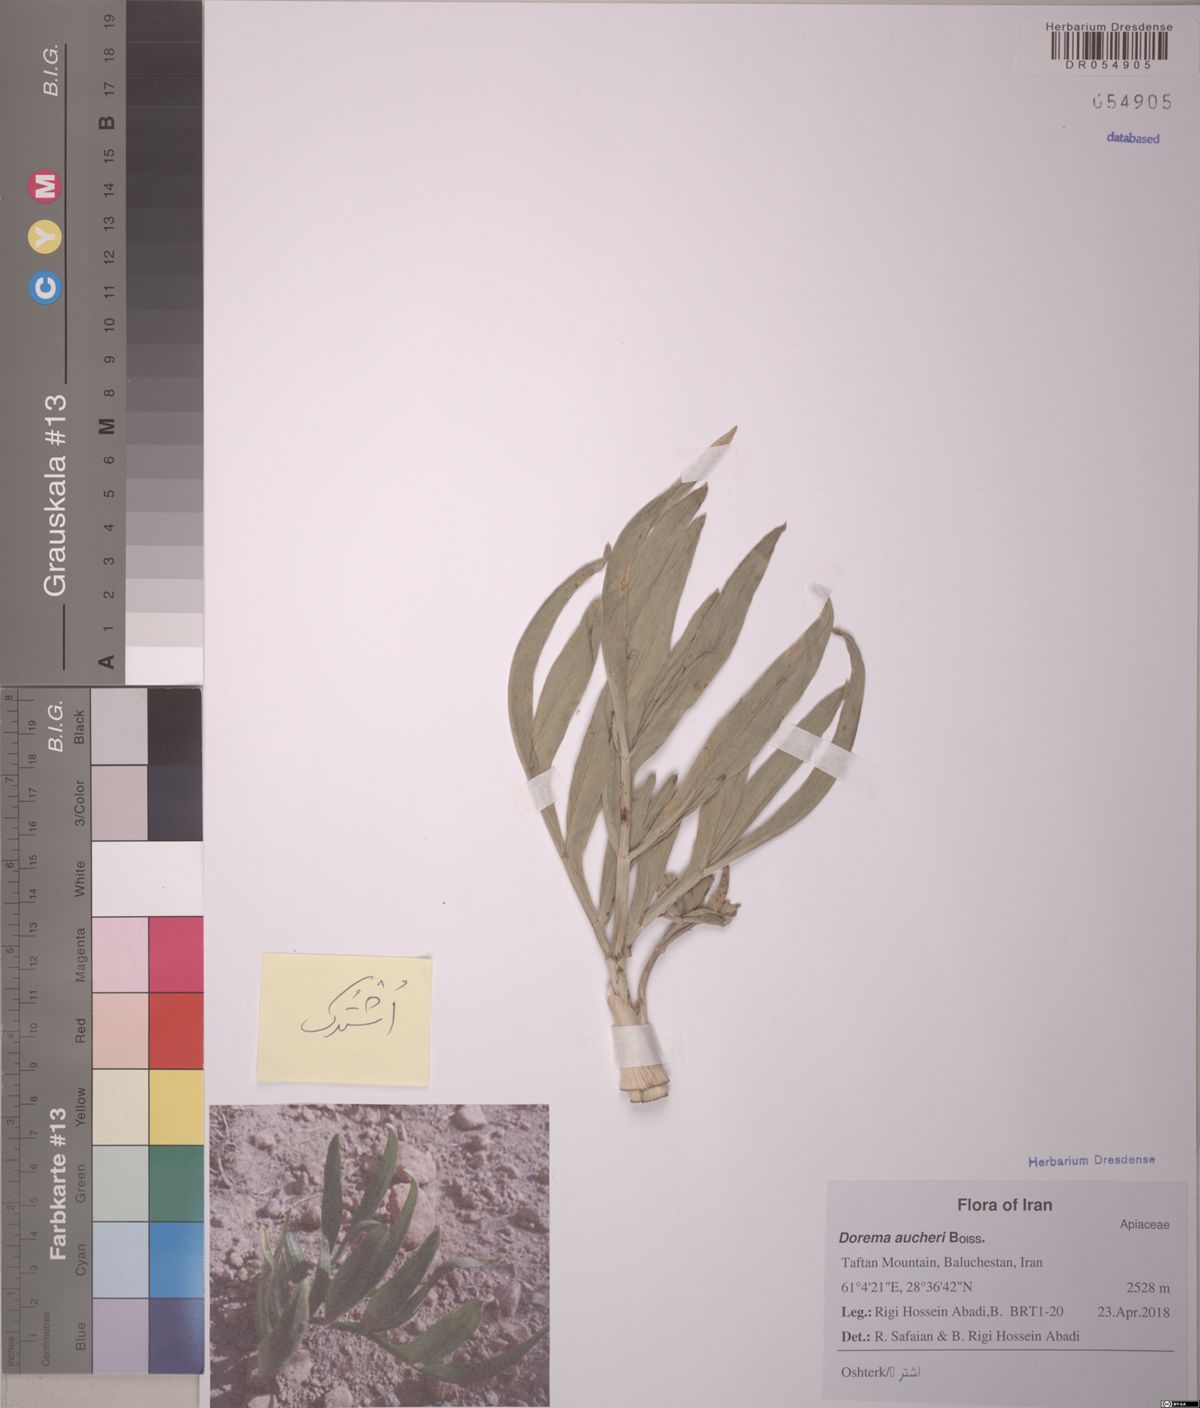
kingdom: Plantae
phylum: Tracheophyta
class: Magnoliopsida
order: Apiales
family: Apiaceae
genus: Ferula
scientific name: Ferula aucheri
